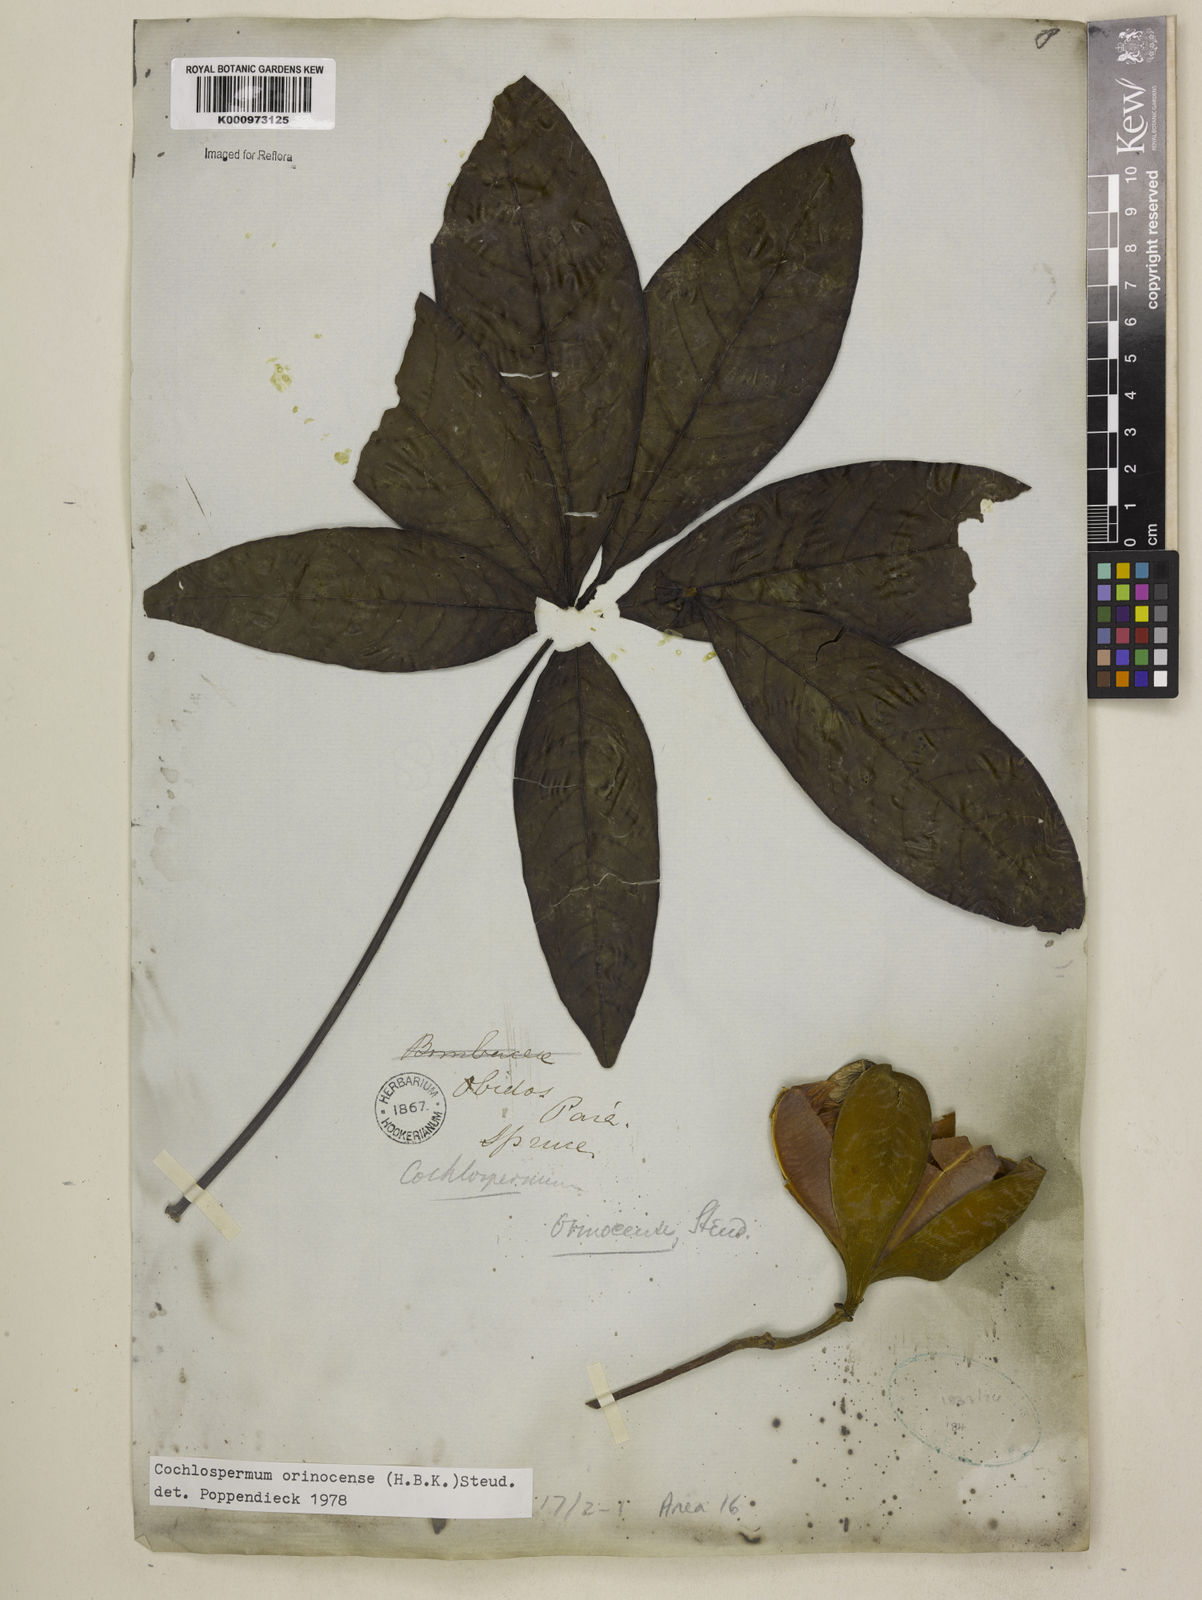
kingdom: Plantae
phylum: Tracheophyta
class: Magnoliopsida
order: Malvales
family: Cochlospermaceae
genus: Cochlospermum
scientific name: Cochlospermum orinocense
